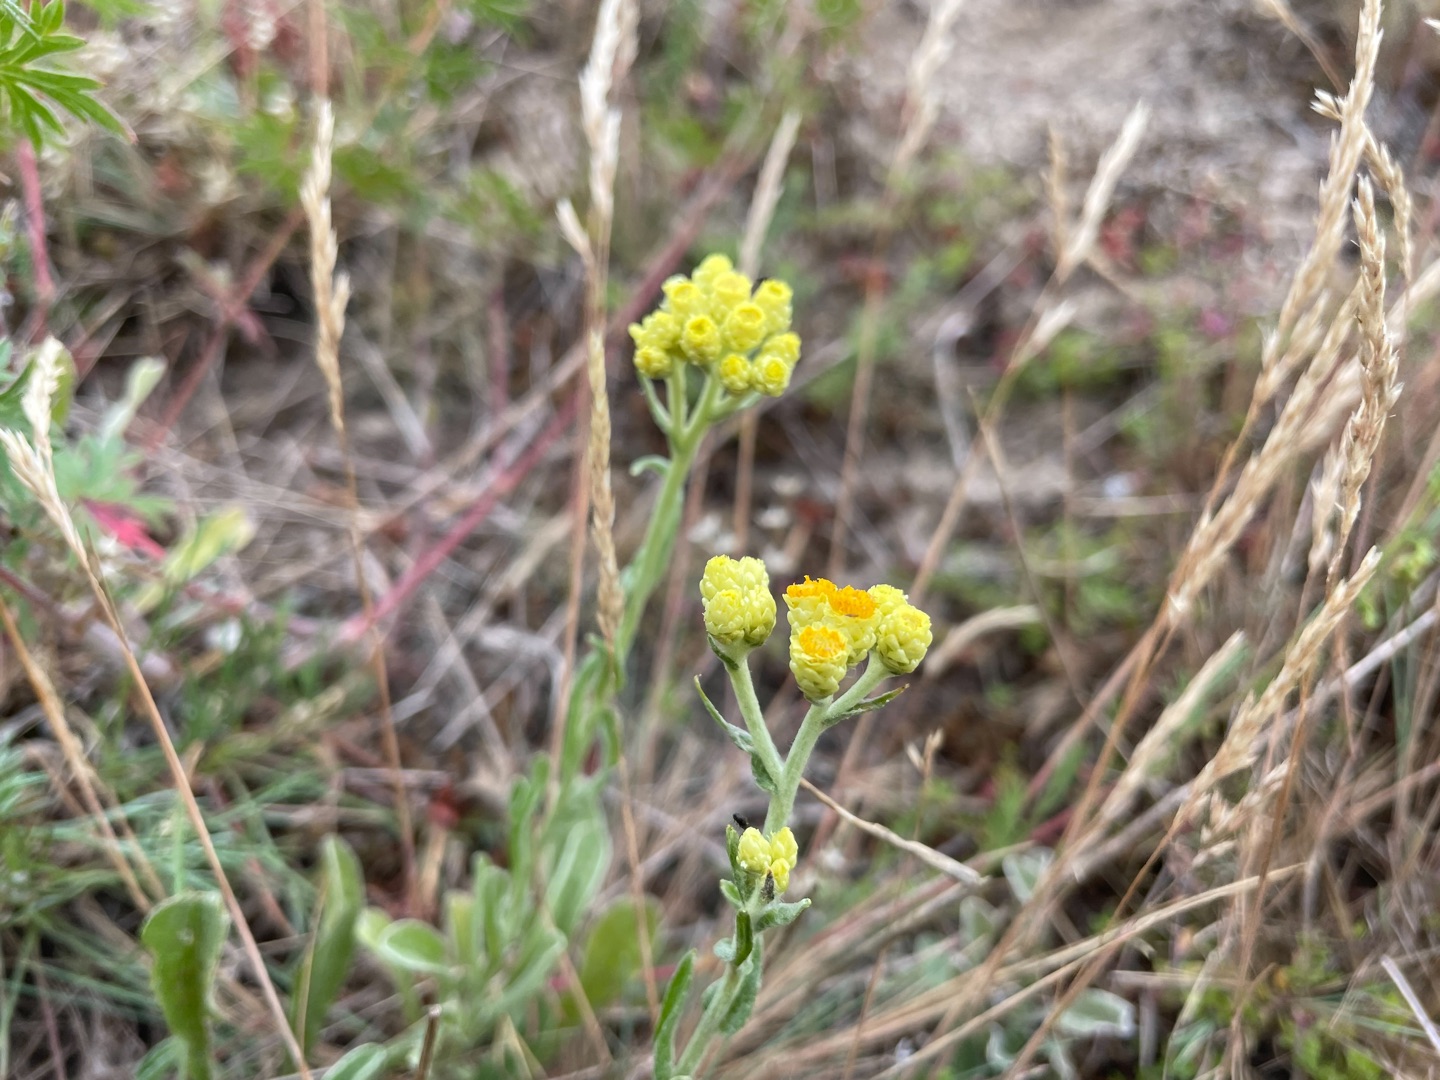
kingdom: Plantae
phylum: Tracheophyta
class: Magnoliopsida
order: Asterales
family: Asteraceae
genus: Helichrysum
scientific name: Helichrysum arenarium
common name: Gul evighedsblomst
